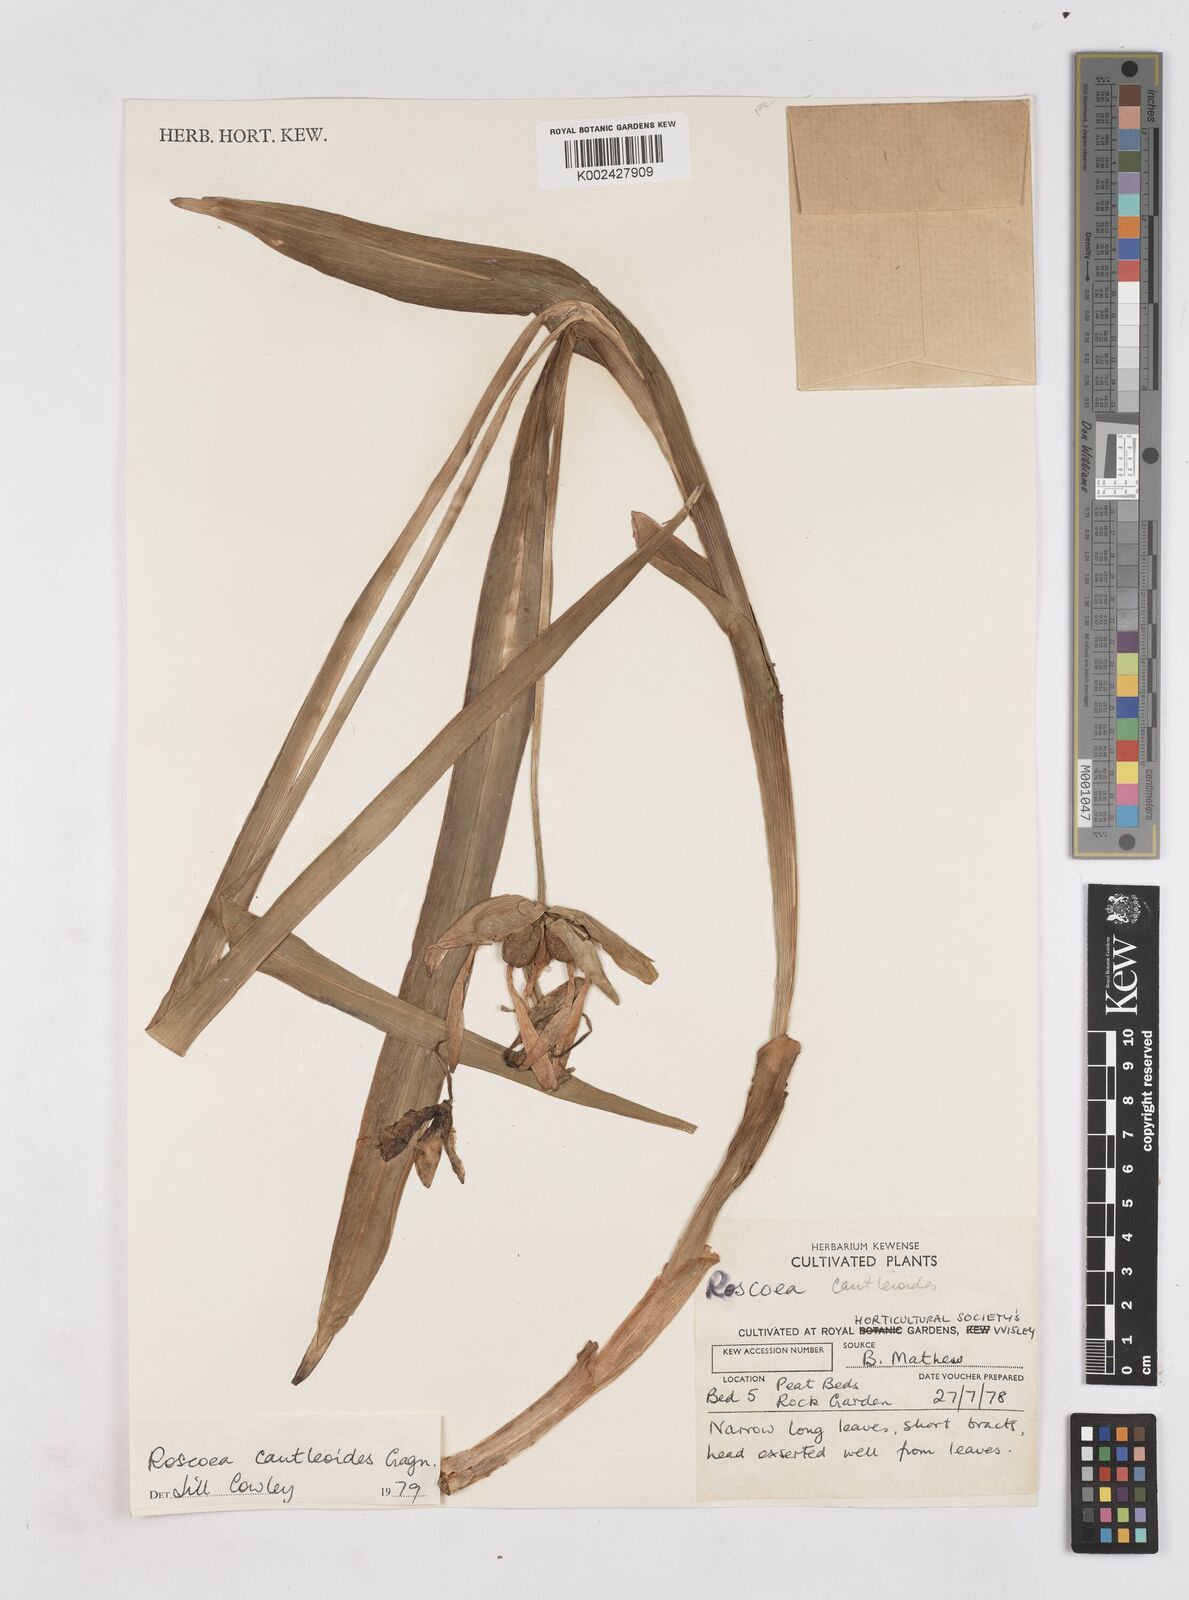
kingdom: Plantae
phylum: Tracheophyta
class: Liliopsida
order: Zingiberales
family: Zingiberaceae
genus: Roscoea
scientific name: Roscoea cautleyoides
